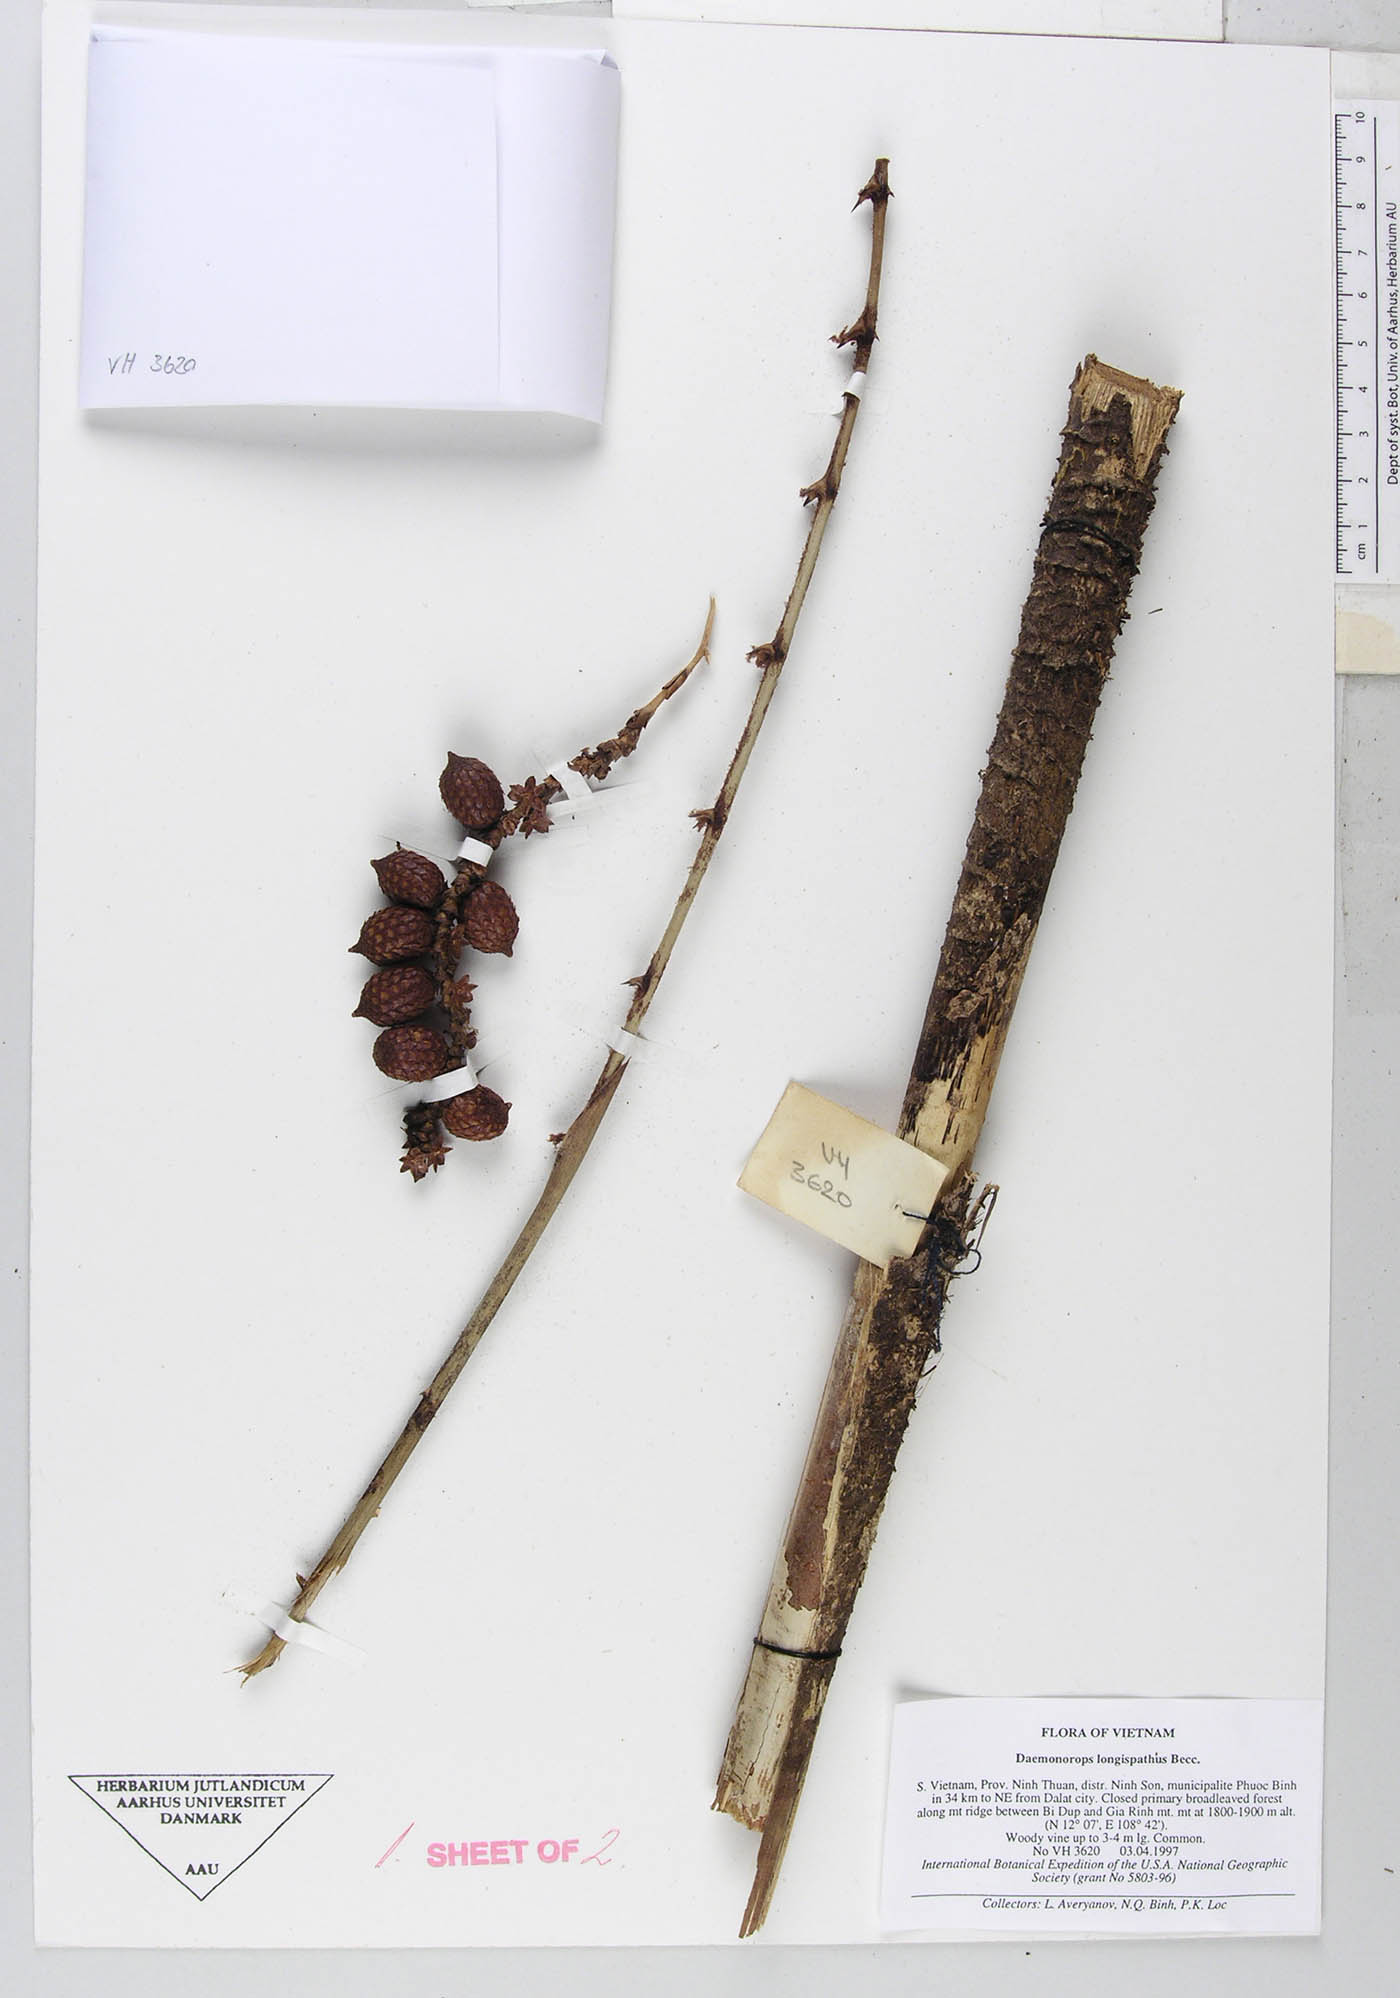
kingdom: Plantae
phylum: Tracheophyta
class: Liliopsida
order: Arecales
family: Arecaceae
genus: Calamus
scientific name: Calamus rhabdocladus
